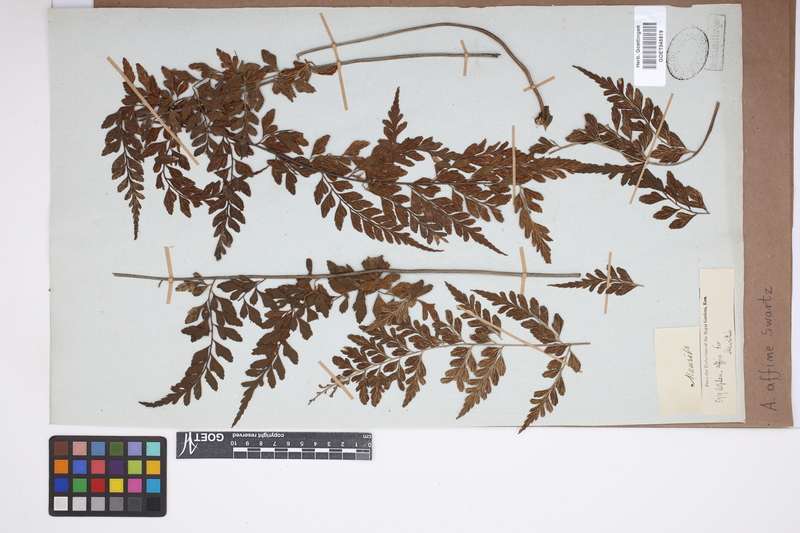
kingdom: Plantae
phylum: Tracheophyta
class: Polypodiopsida
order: Polypodiales
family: Aspleniaceae
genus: Asplenium
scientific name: Asplenium affine
